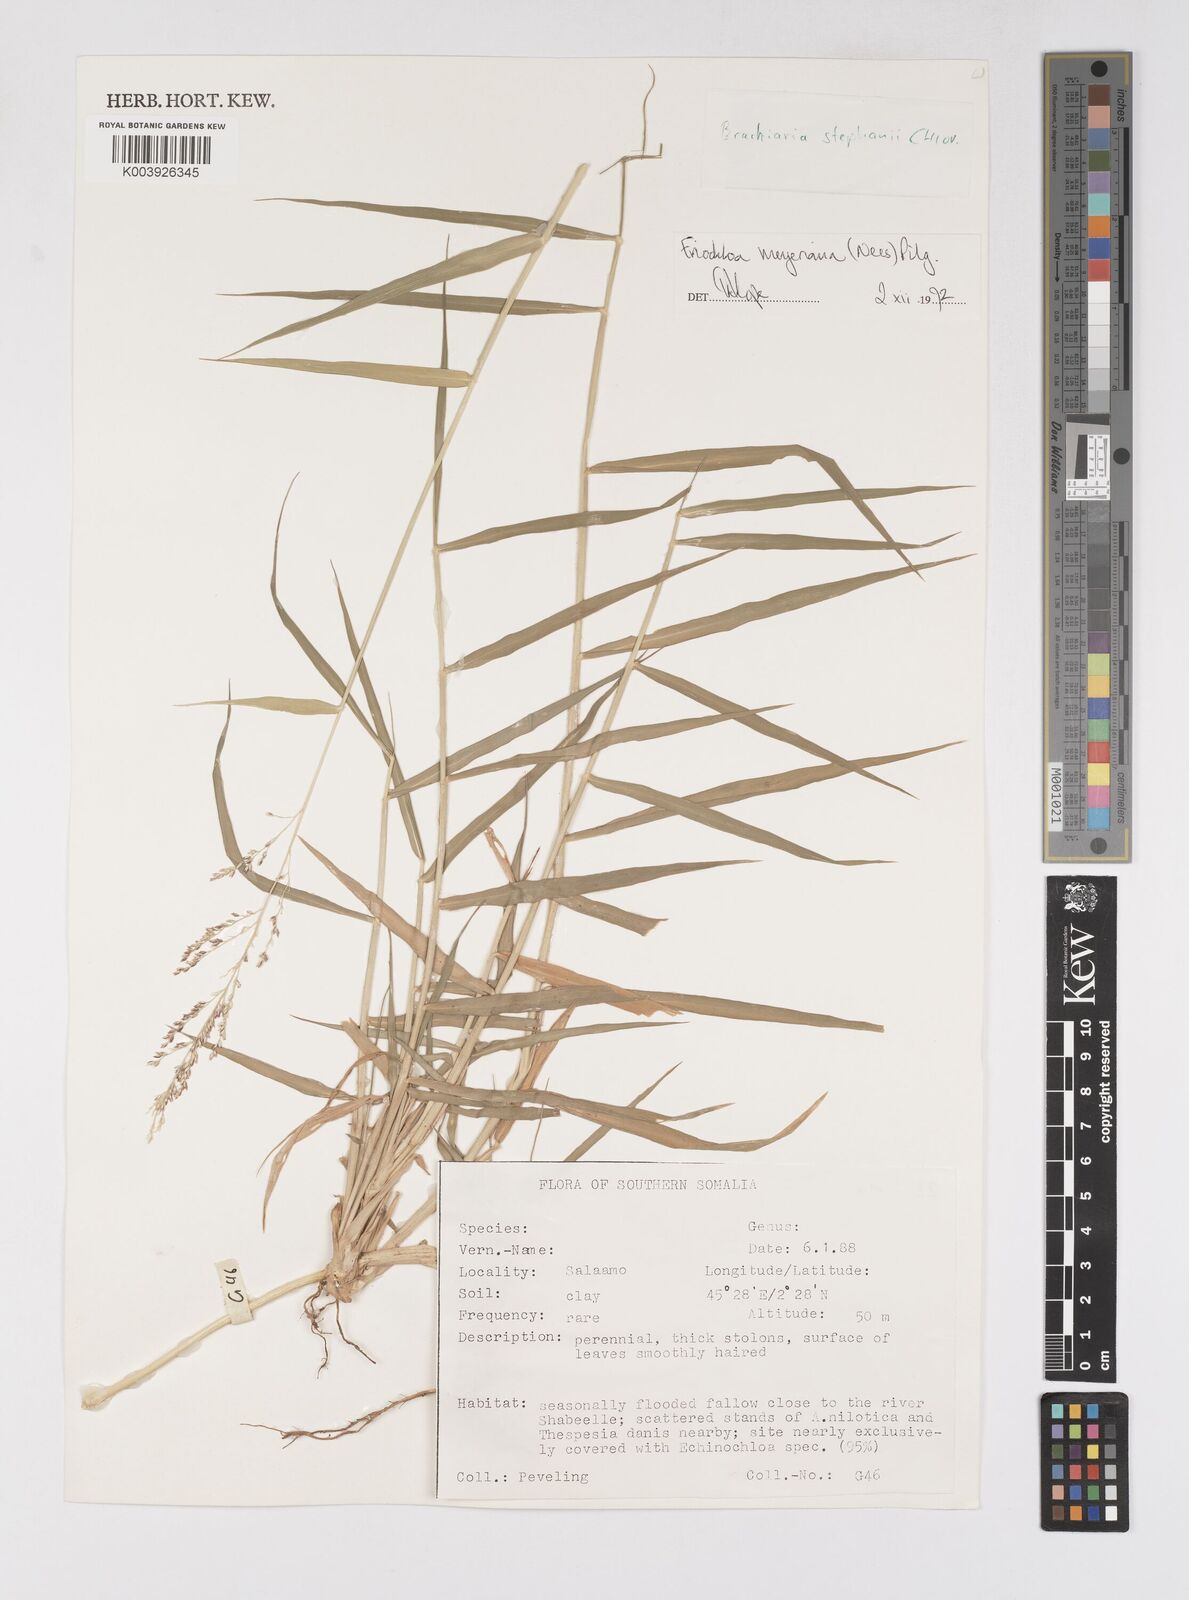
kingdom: Plantae
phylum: Tracheophyta
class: Liliopsida
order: Poales
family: Poaceae
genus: Eriochloa
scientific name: Eriochloa meyeriana
